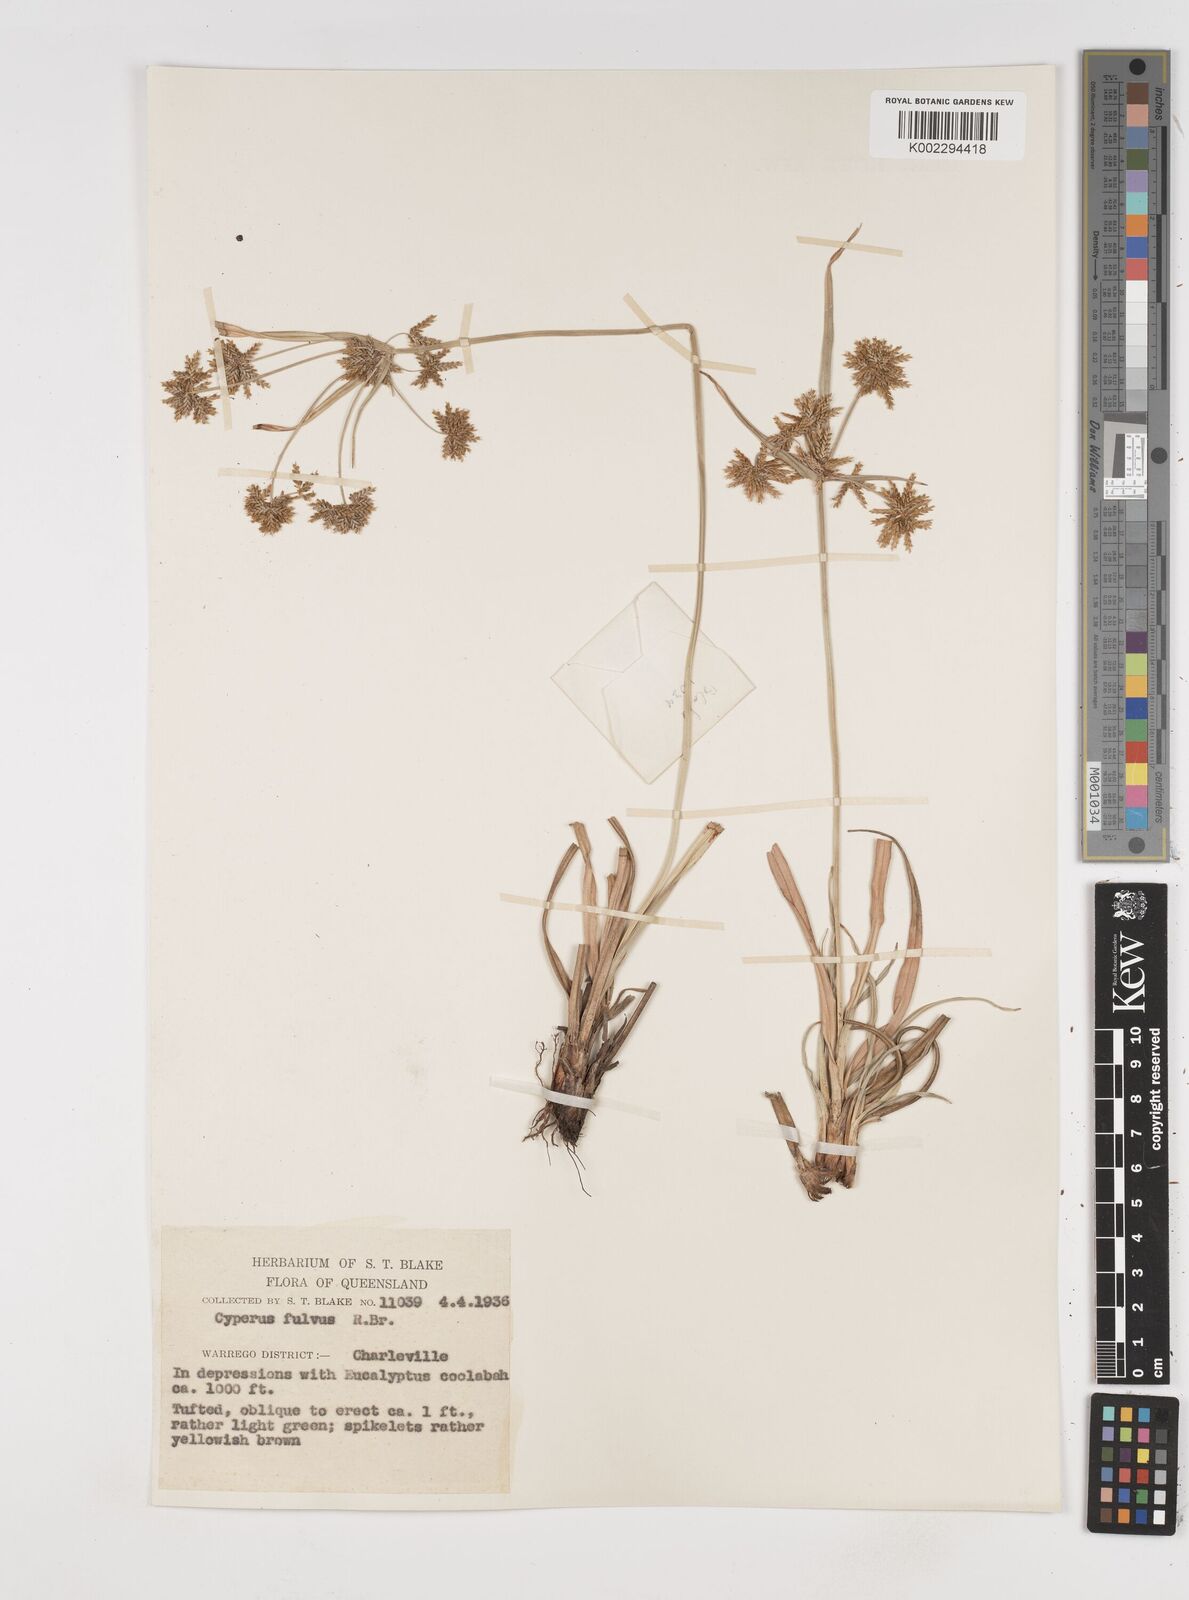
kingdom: Plantae
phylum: Tracheophyta
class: Liliopsida
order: Poales
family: Cyperaceae
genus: Cyperus
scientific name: Cyperus fulvus
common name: Sticky sedge
